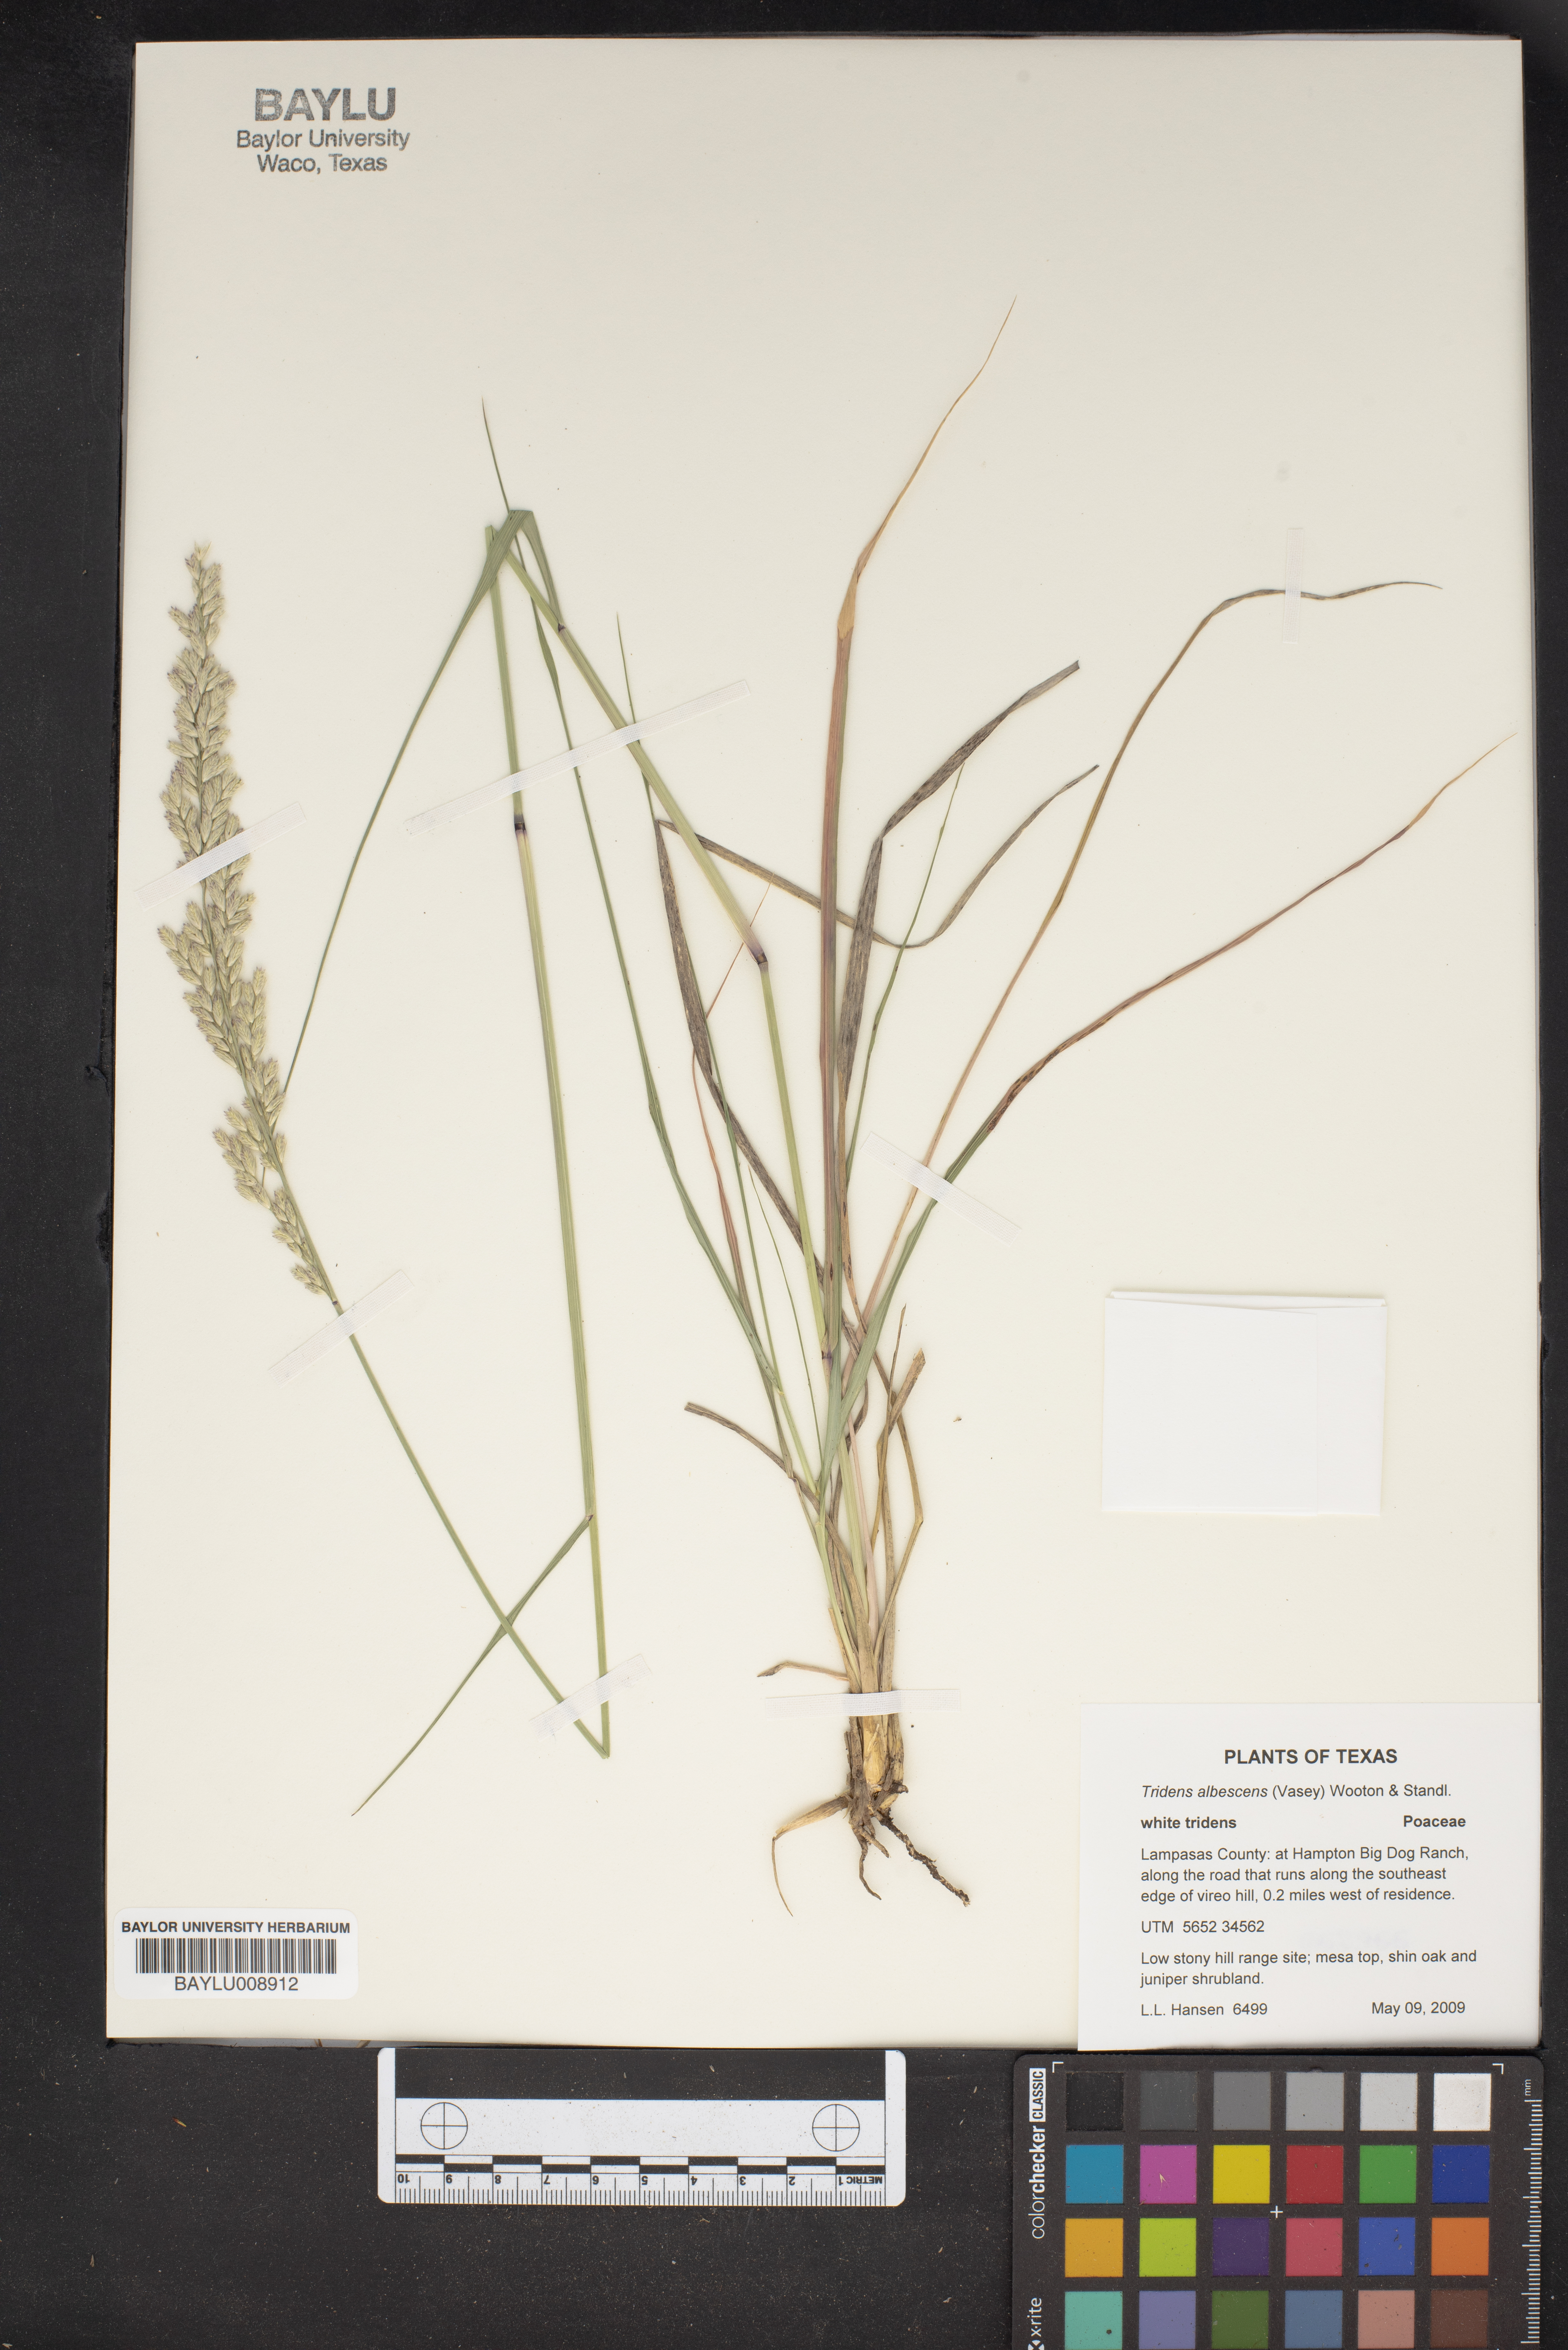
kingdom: Plantae
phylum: Tracheophyta
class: Liliopsida
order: Poales
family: Poaceae
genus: Tridens
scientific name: Tridens albescens
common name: White tridens
